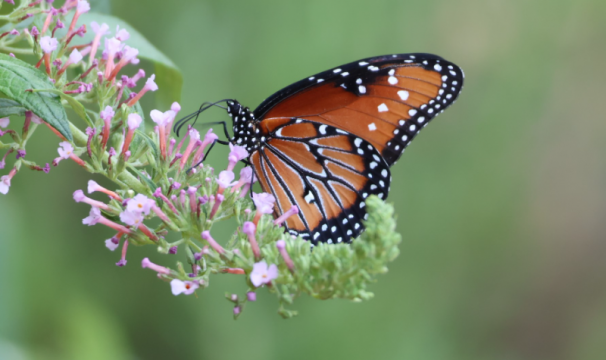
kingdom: Animalia
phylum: Arthropoda
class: Insecta
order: Lepidoptera
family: Nymphalidae
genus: Danaus
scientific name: Danaus gilippus
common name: Queen
